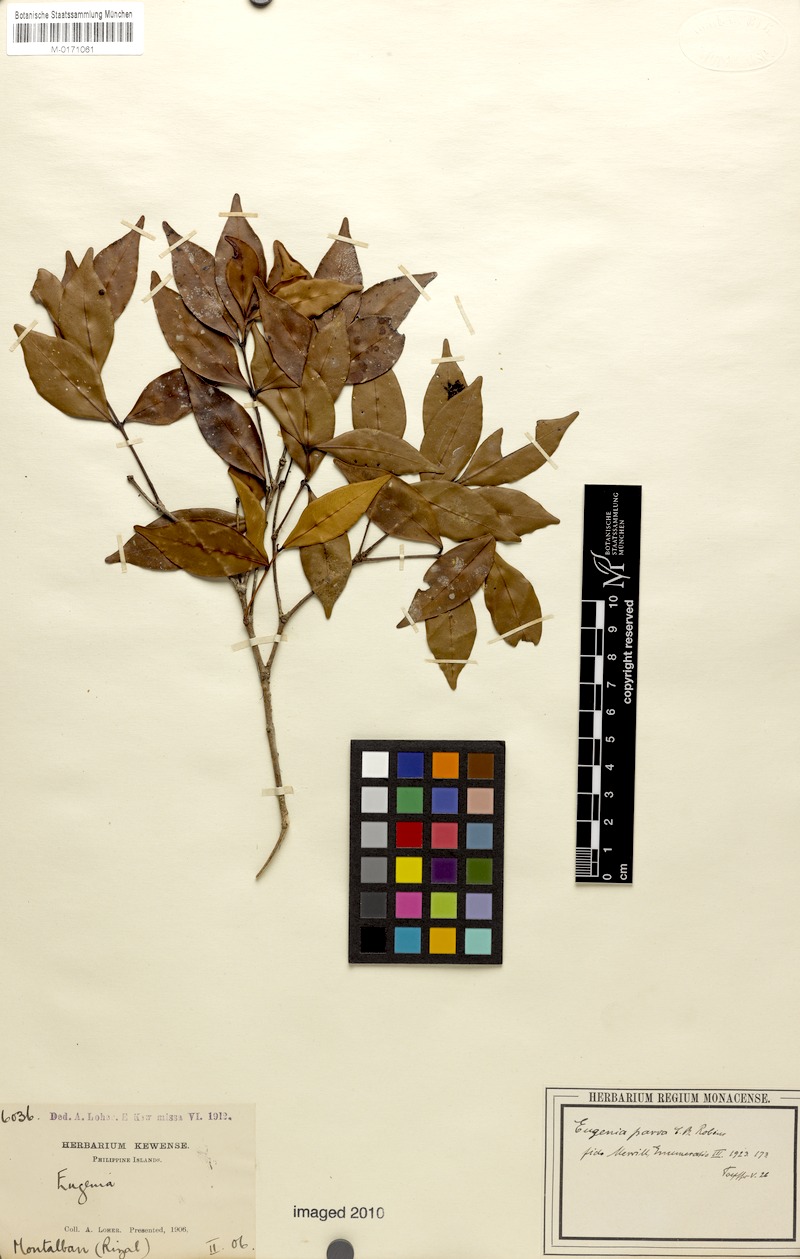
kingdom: Plantae
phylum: Tracheophyta
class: Magnoliopsida
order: Myrtales
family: Myrtaceae
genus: Syzygium
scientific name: Syzygium myrtifolium
